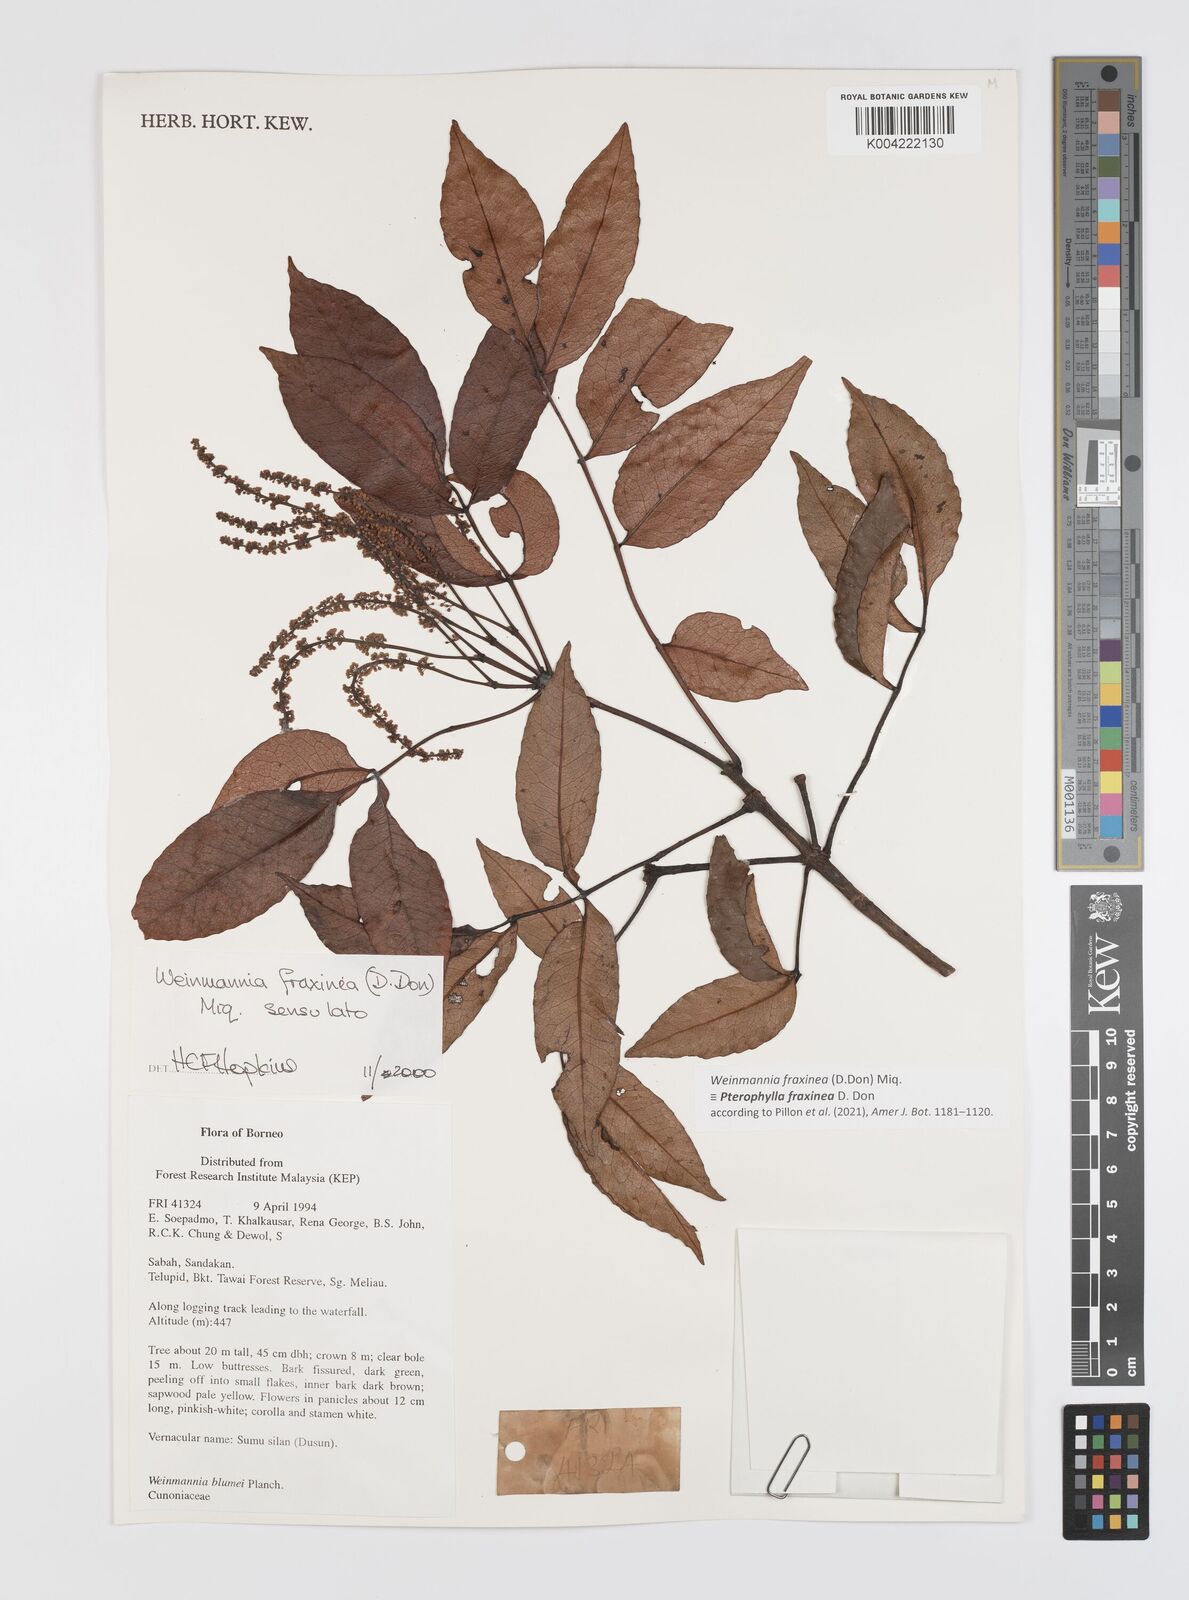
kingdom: Plantae
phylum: Tracheophyta
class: Magnoliopsida
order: Oxalidales
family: Cunoniaceae
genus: Pterophylla
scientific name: Pterophylla fraxinea
